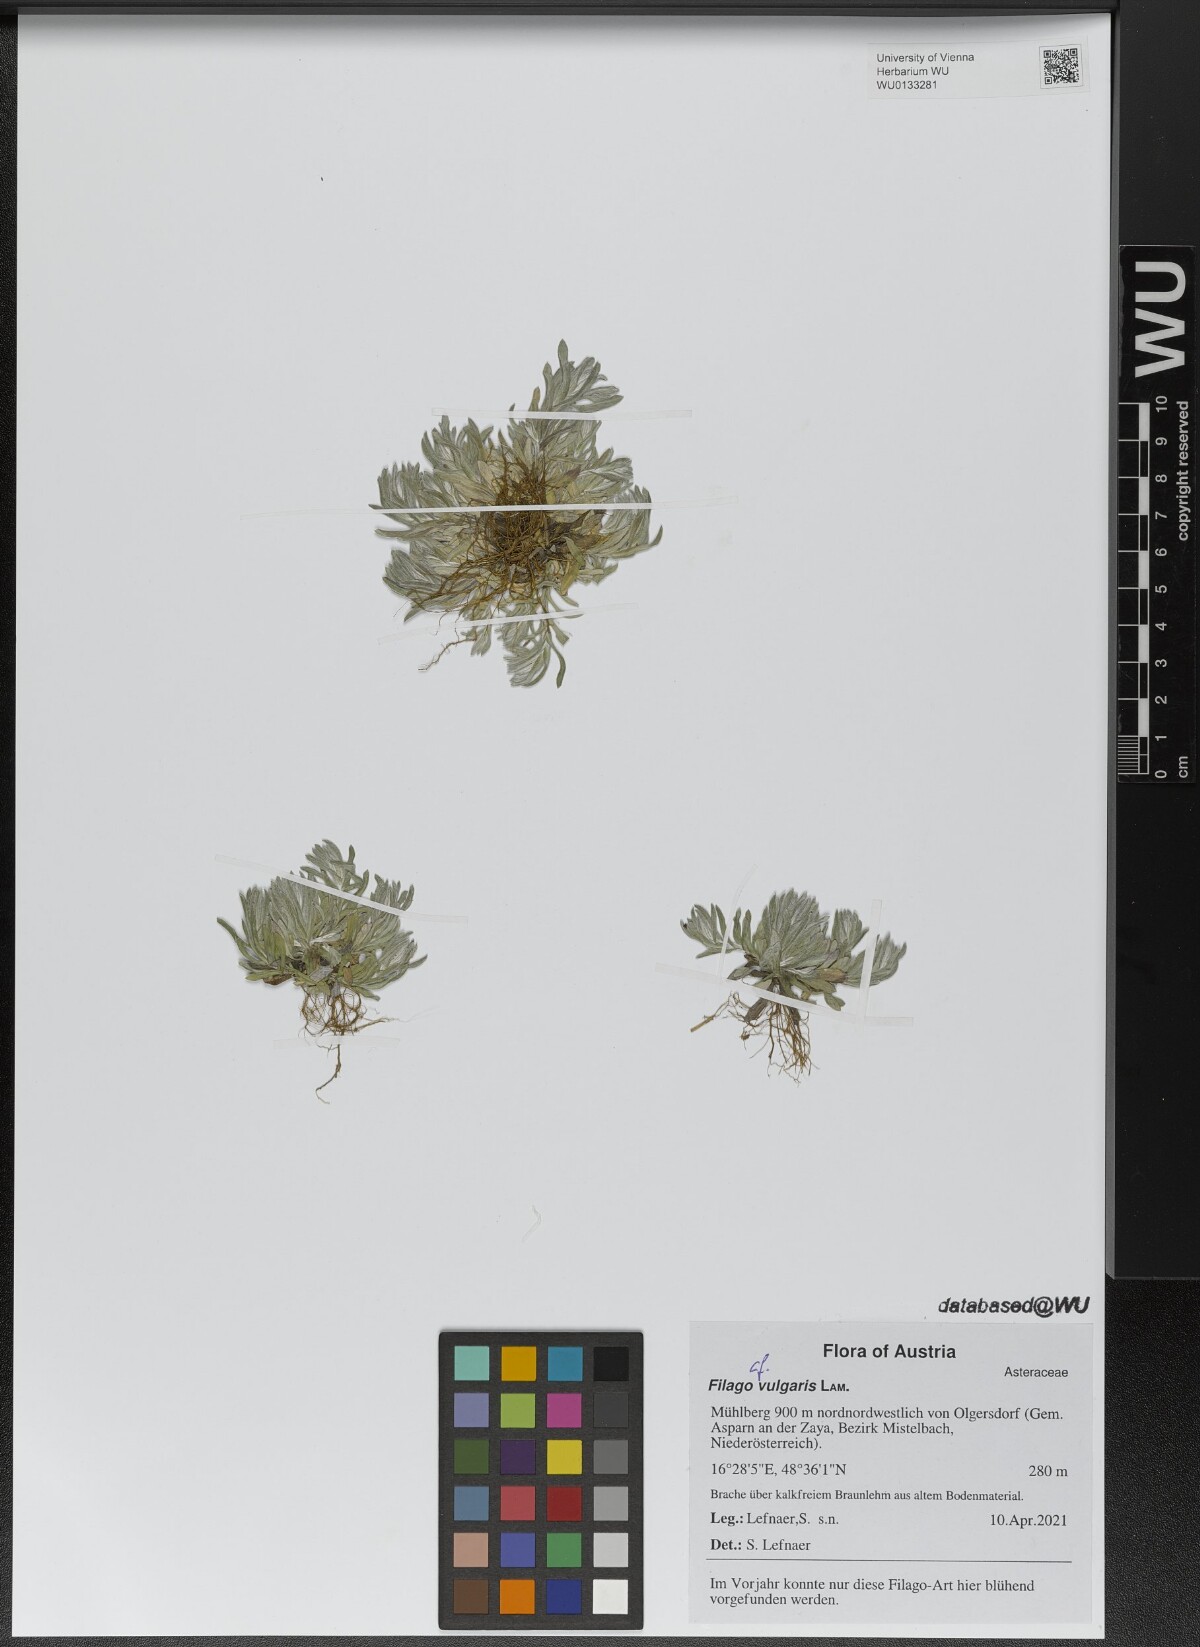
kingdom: Plantae
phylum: Tracheophyta
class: Magnoliopsida
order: Asterales
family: Asteraceae
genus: Filago
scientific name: Filago germanica
